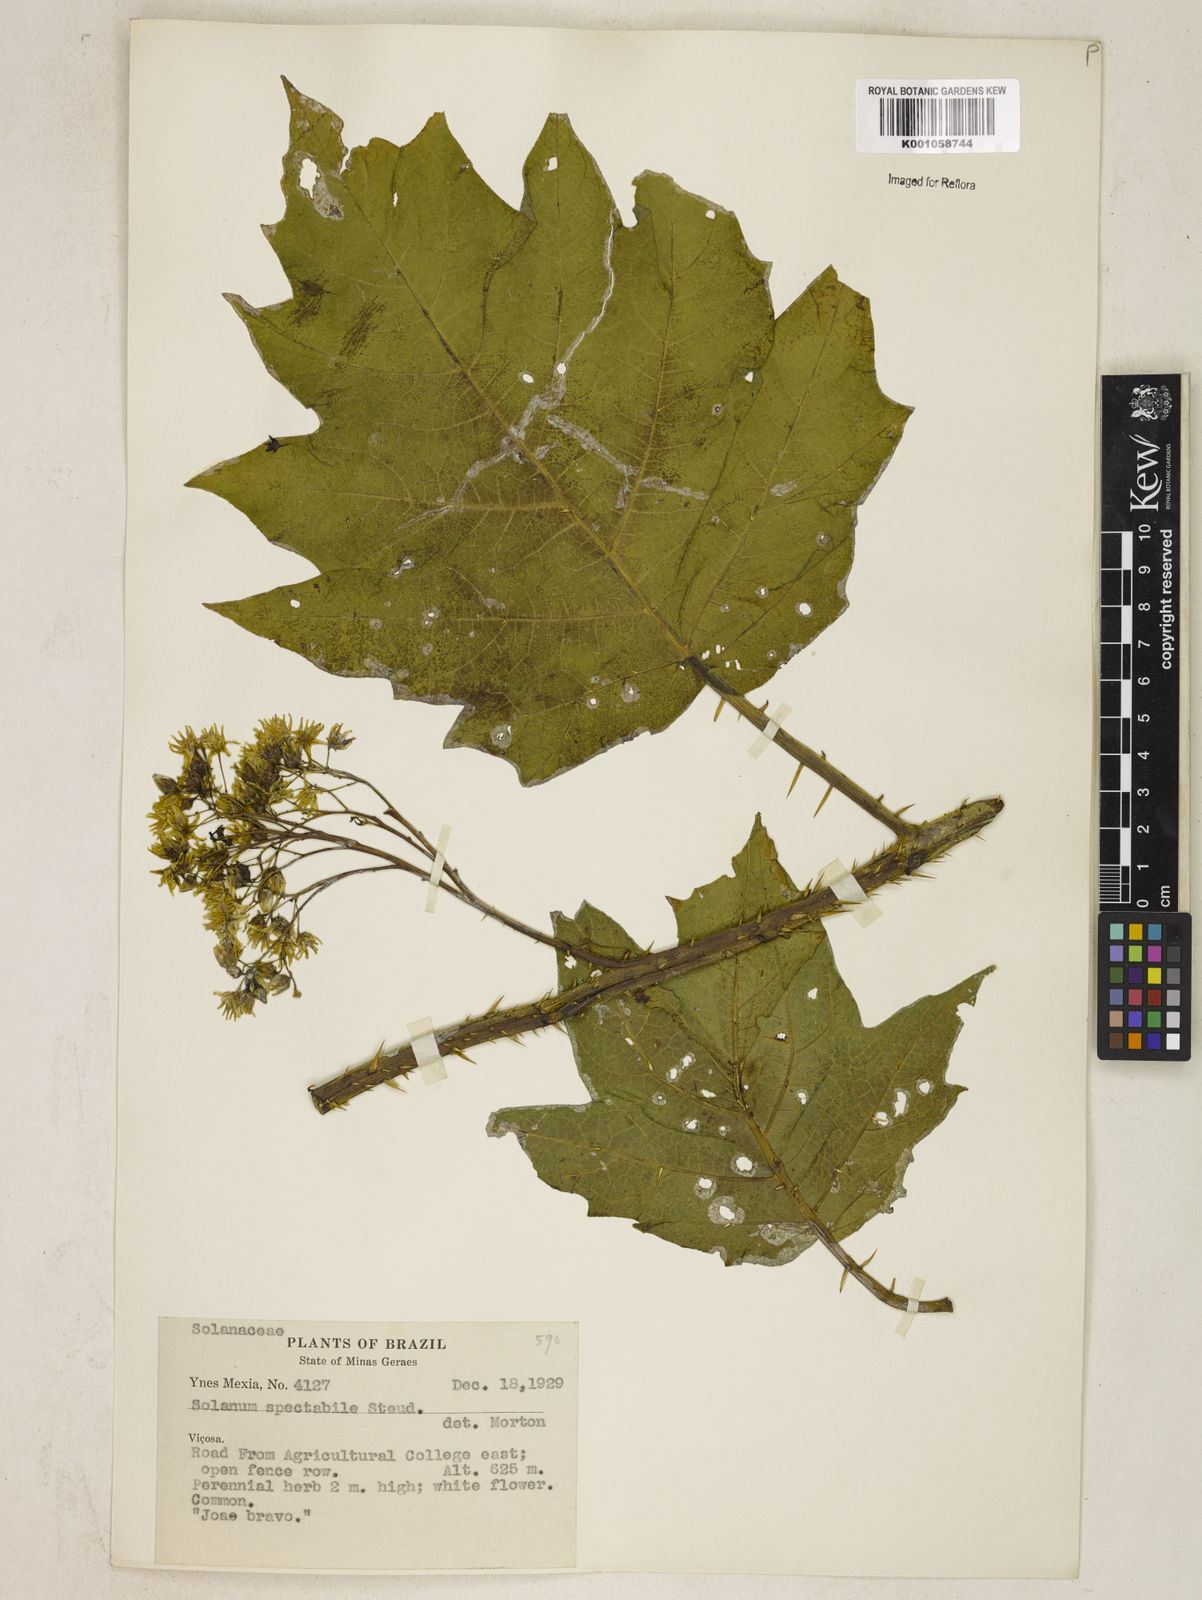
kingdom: Plantae
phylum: Tracheophyta
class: Magnoliopsida
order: Solanales
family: Solanaceae
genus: Solanum
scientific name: Solanum subumbellatum
